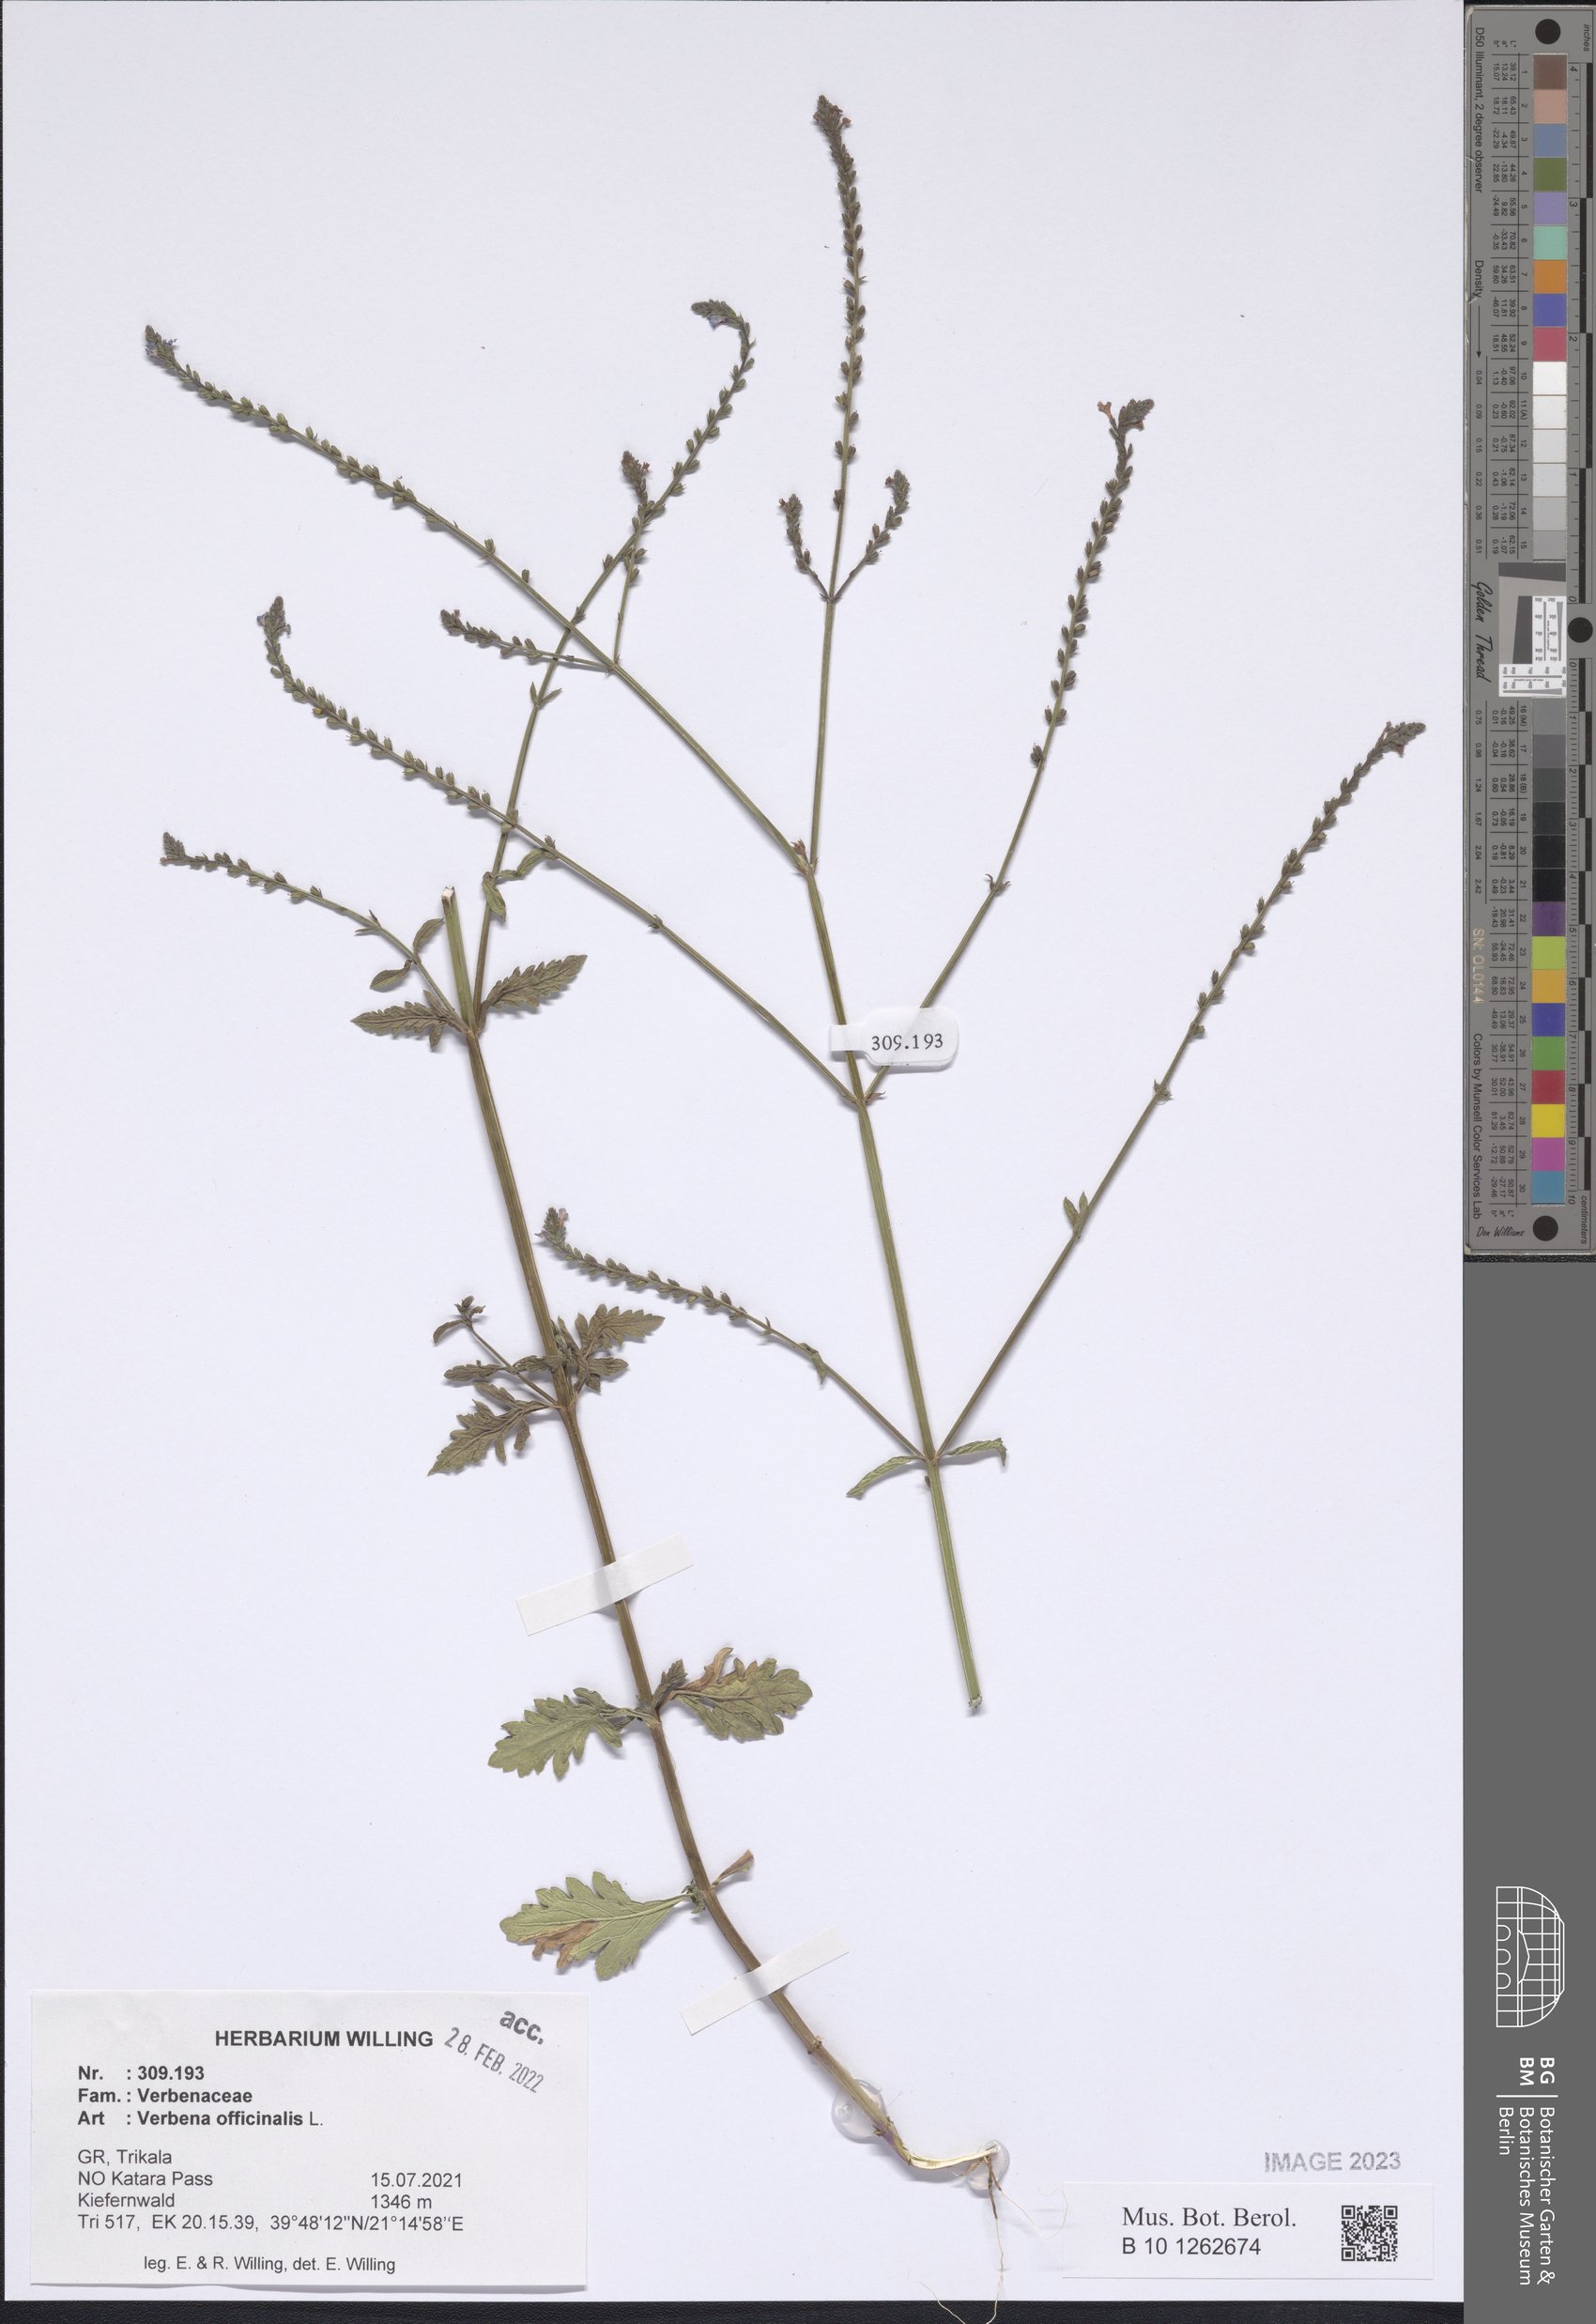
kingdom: Plantae
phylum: Tracheophyta
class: Magnoliopsida
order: Lamiales
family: Verbenaceae
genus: Verbena
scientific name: Verbena officinalis
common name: Vervain
